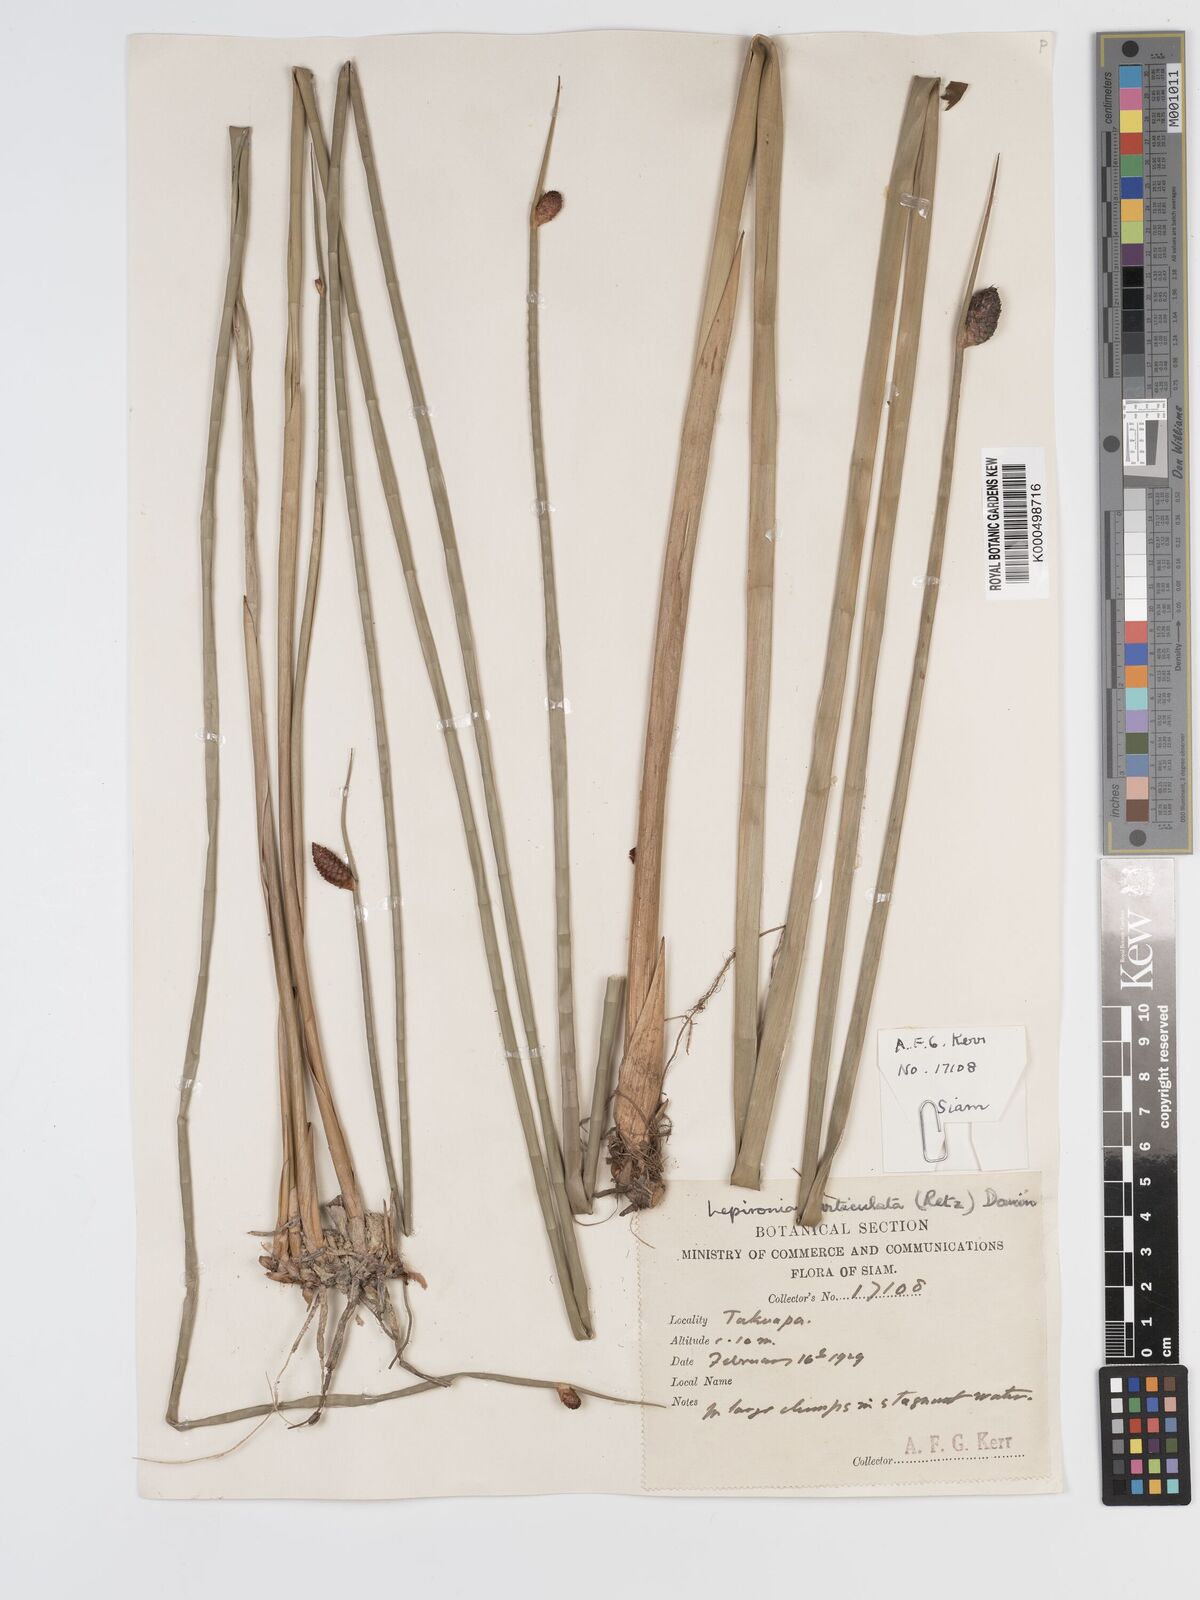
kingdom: Plantae
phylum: Tracheophyta
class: Liliopsida
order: Poales
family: Cyperaceae
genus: Lepironia
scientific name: Lepironia articulata
